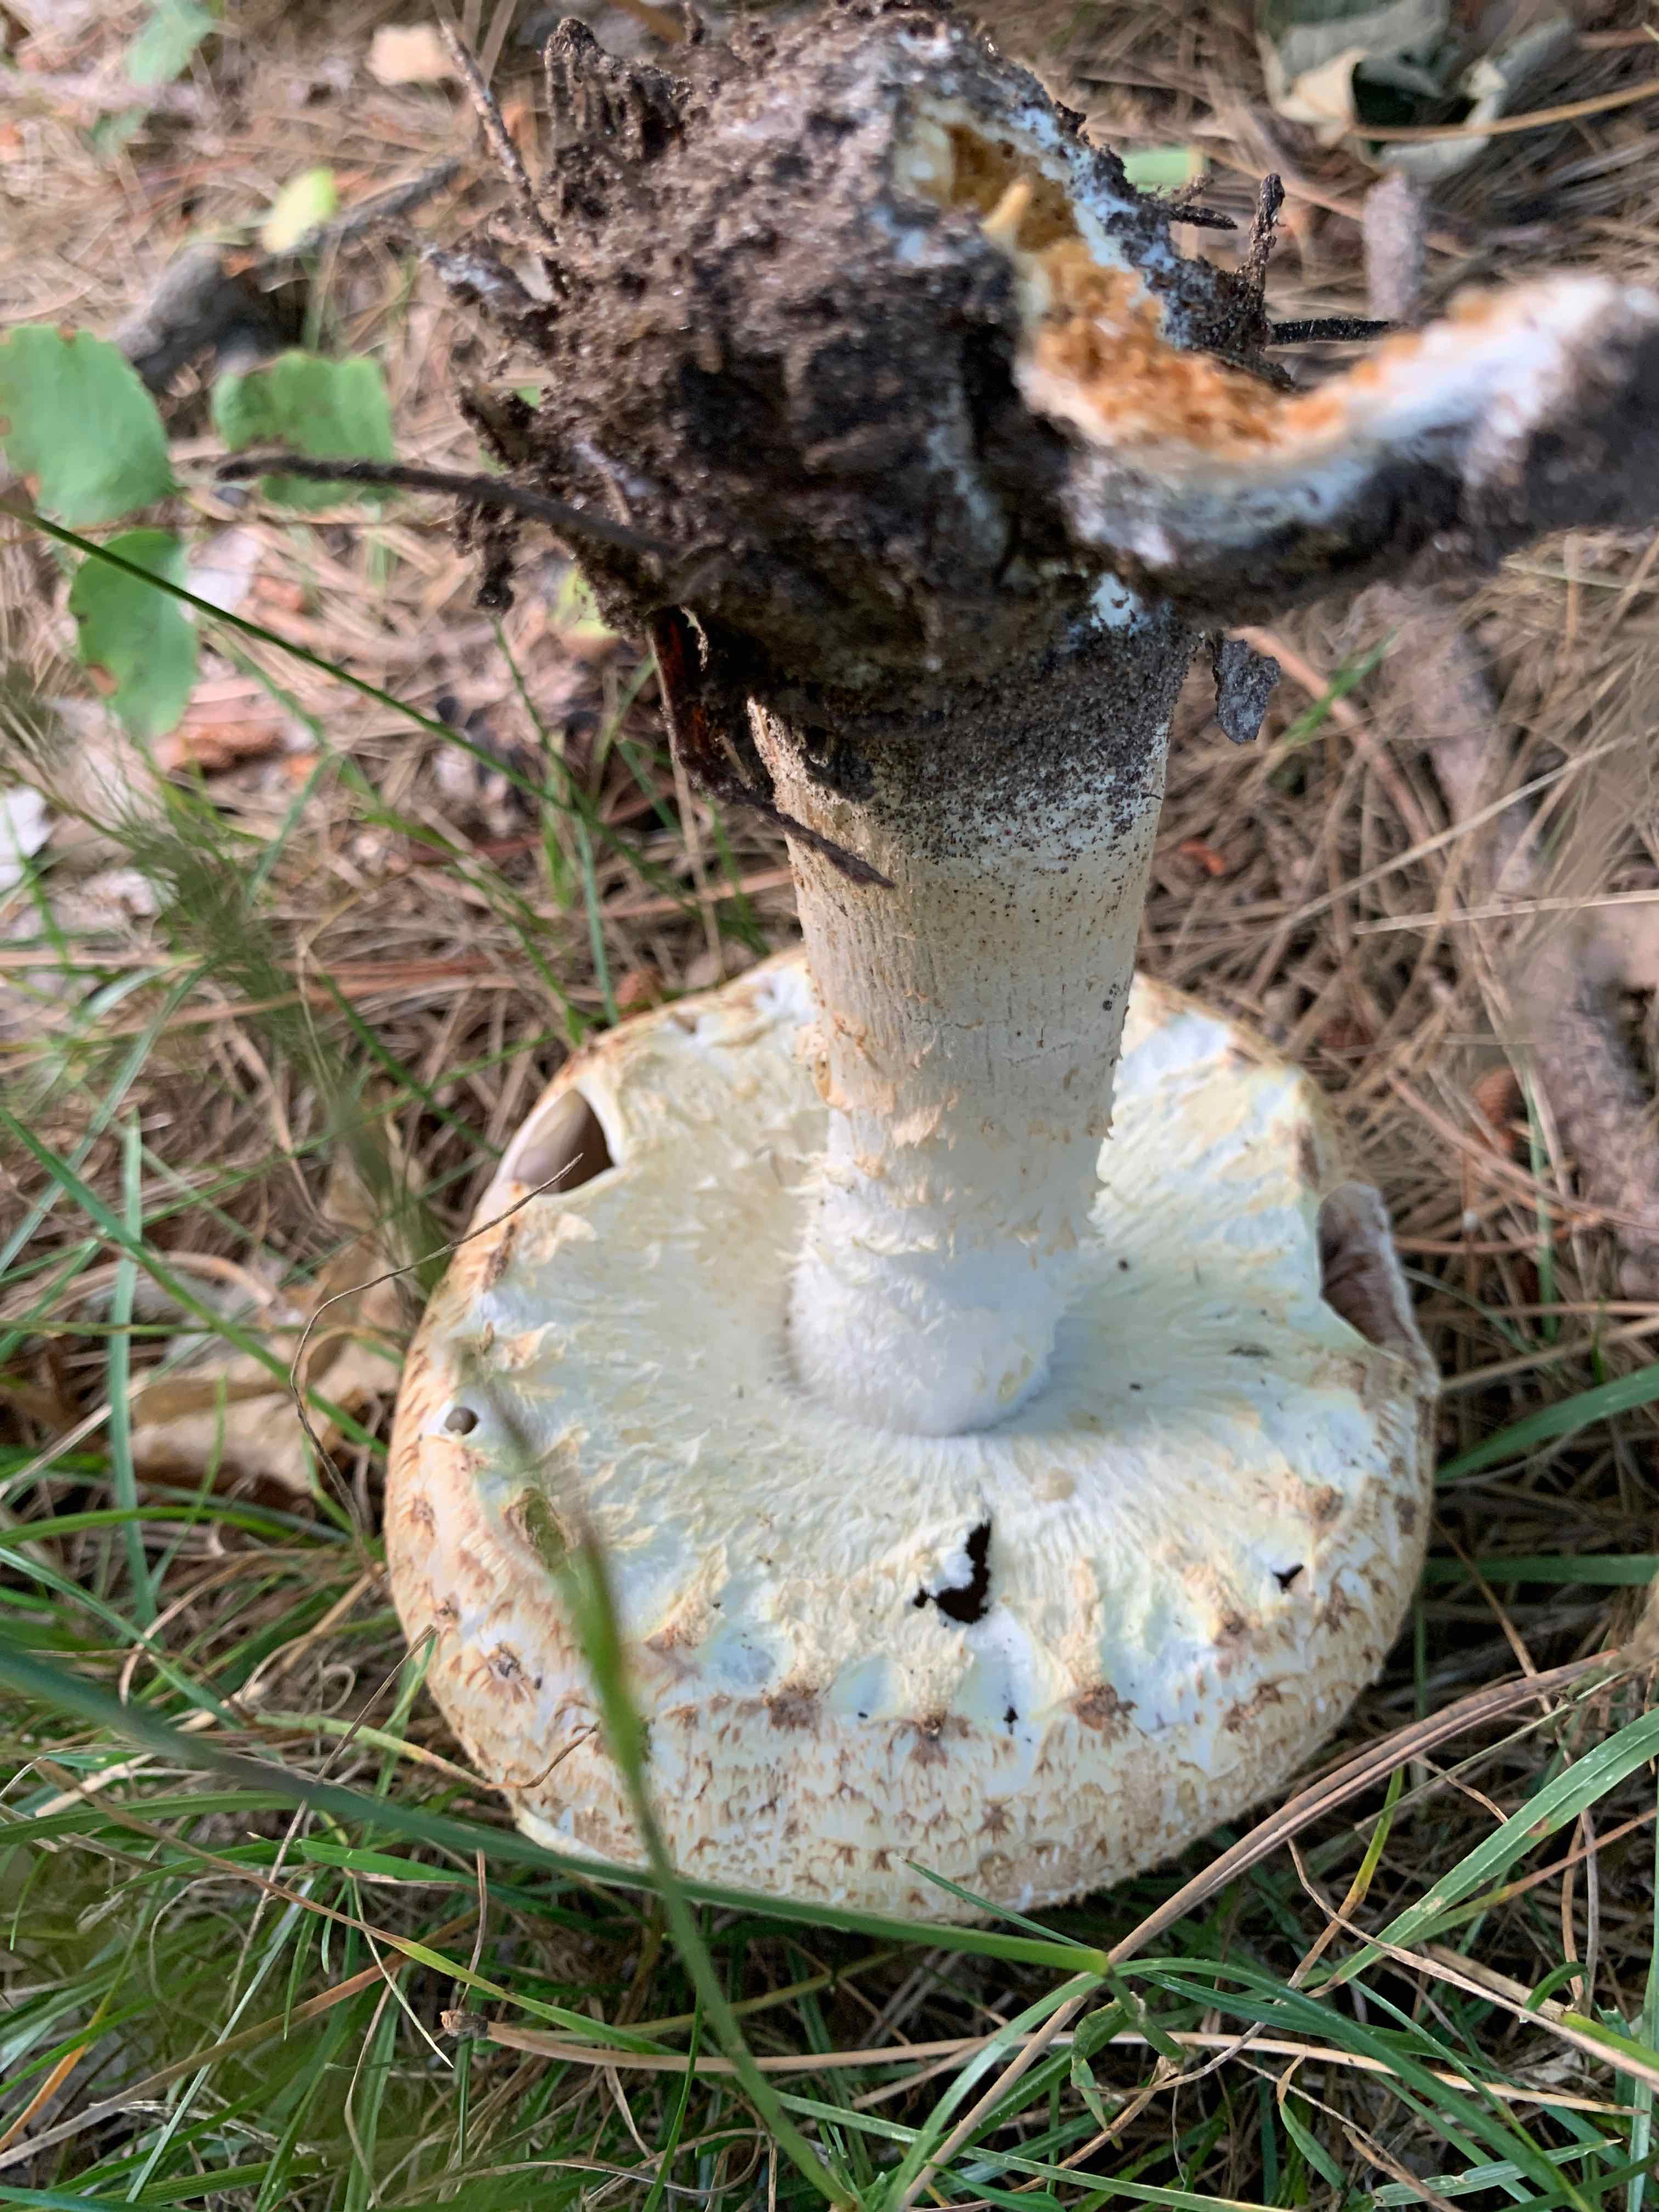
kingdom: Fungi
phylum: Basidiomycota
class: Agaricomycetes
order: Agaricales
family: Agaricaceae
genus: Agaricus
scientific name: Agaricus augustus
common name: prægtig champignon
